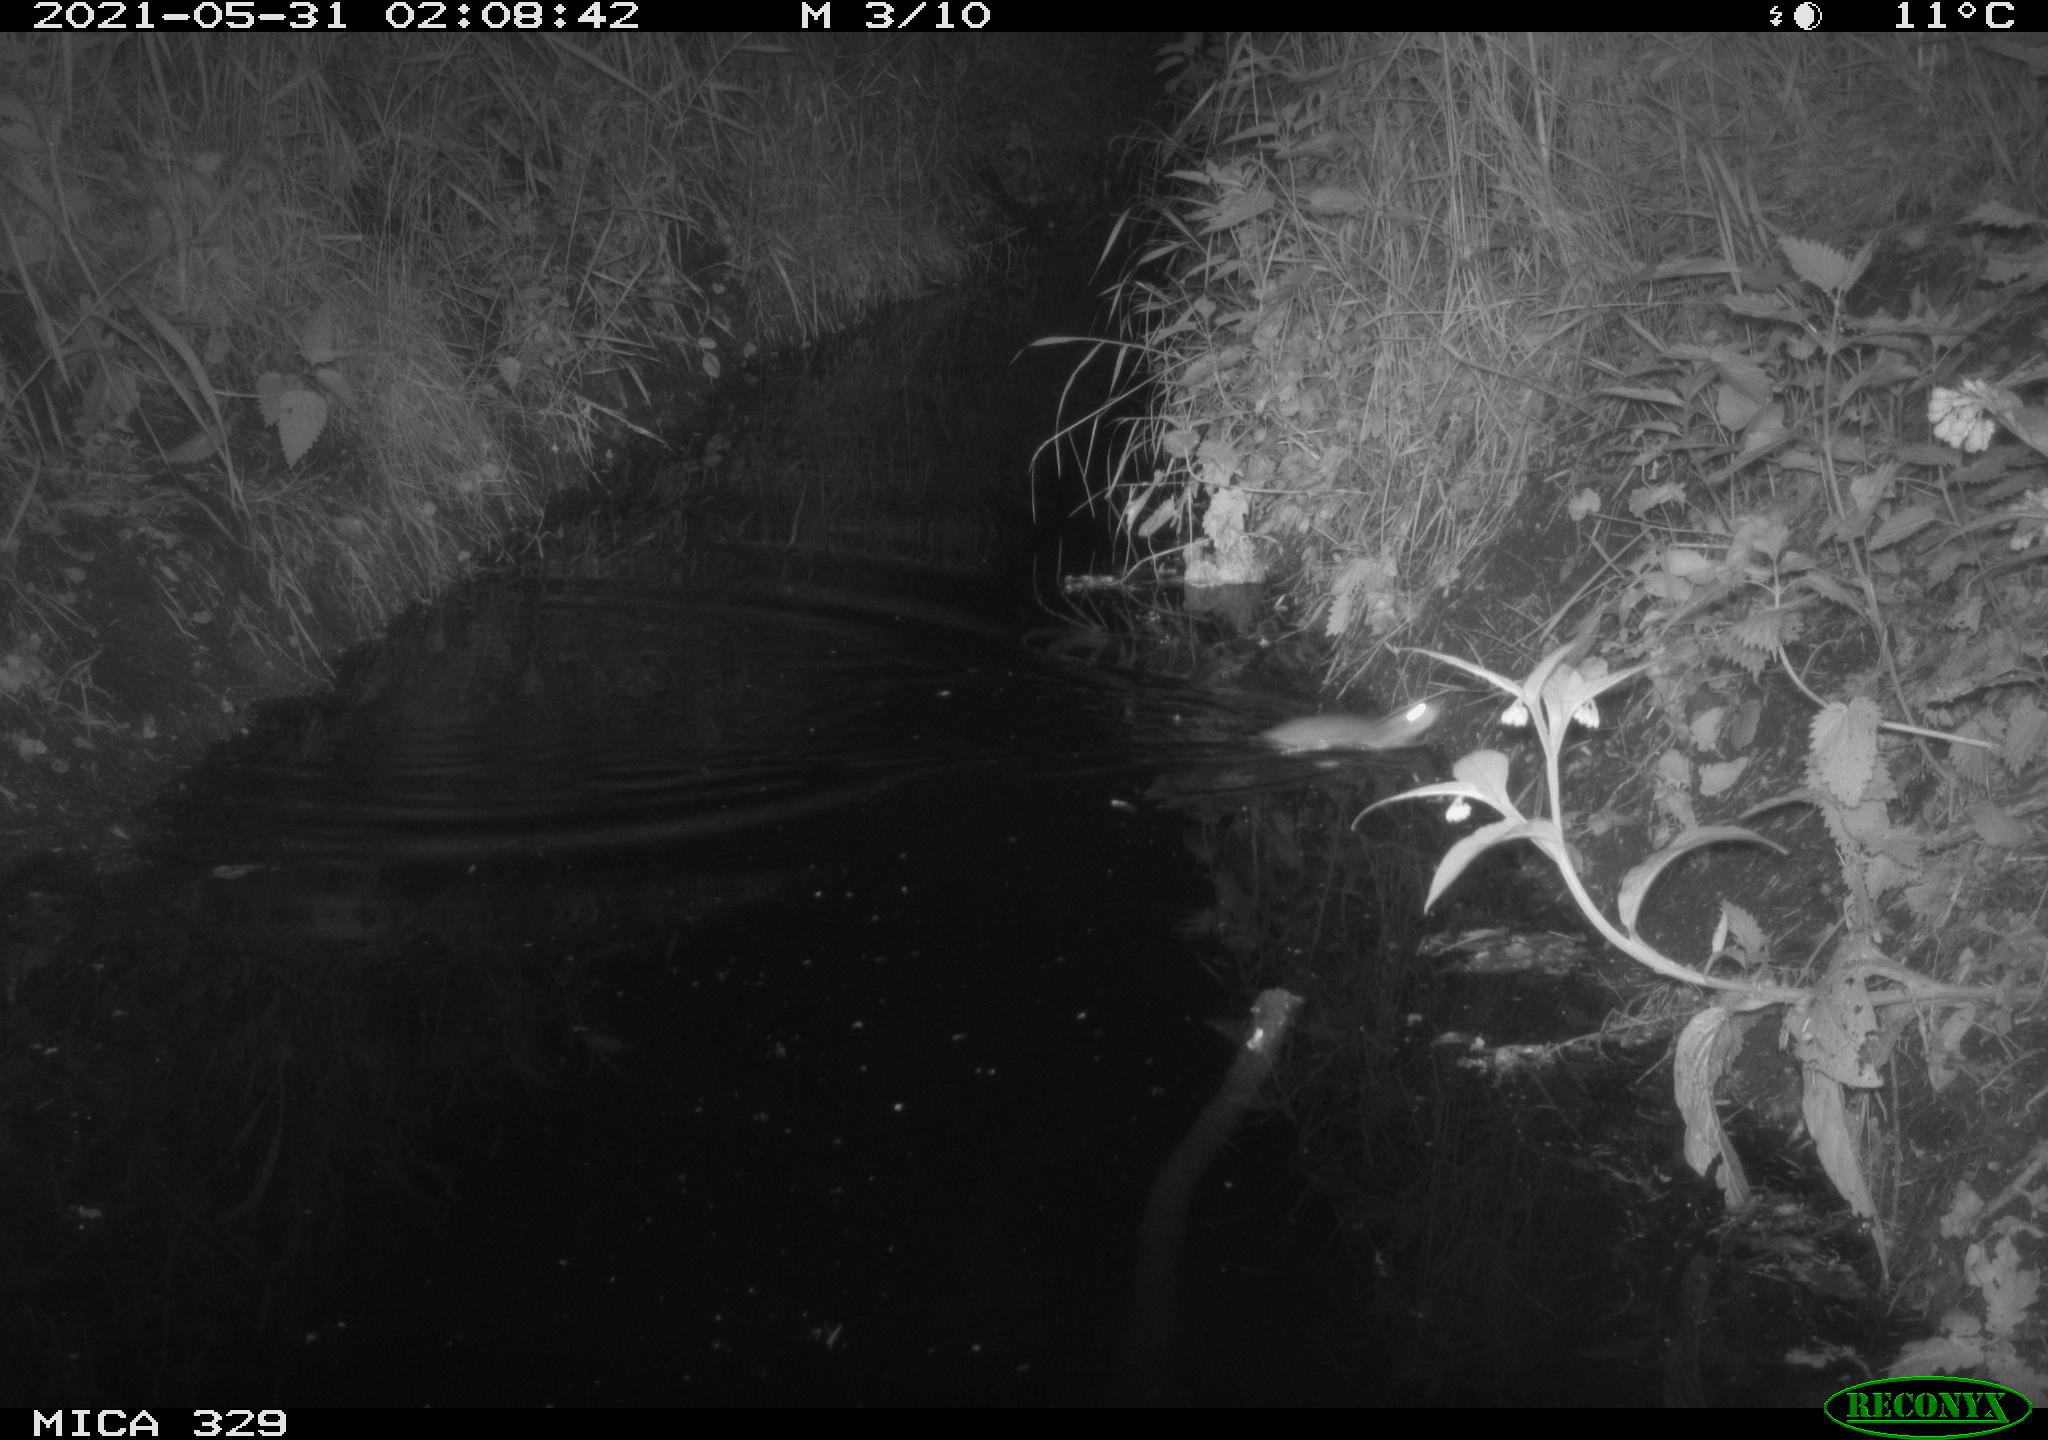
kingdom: Animalia
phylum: Chordata
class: Mammalia
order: Rodentia
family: Muridae
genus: Rattus
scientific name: Rattus norvegicus
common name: Brown rat
